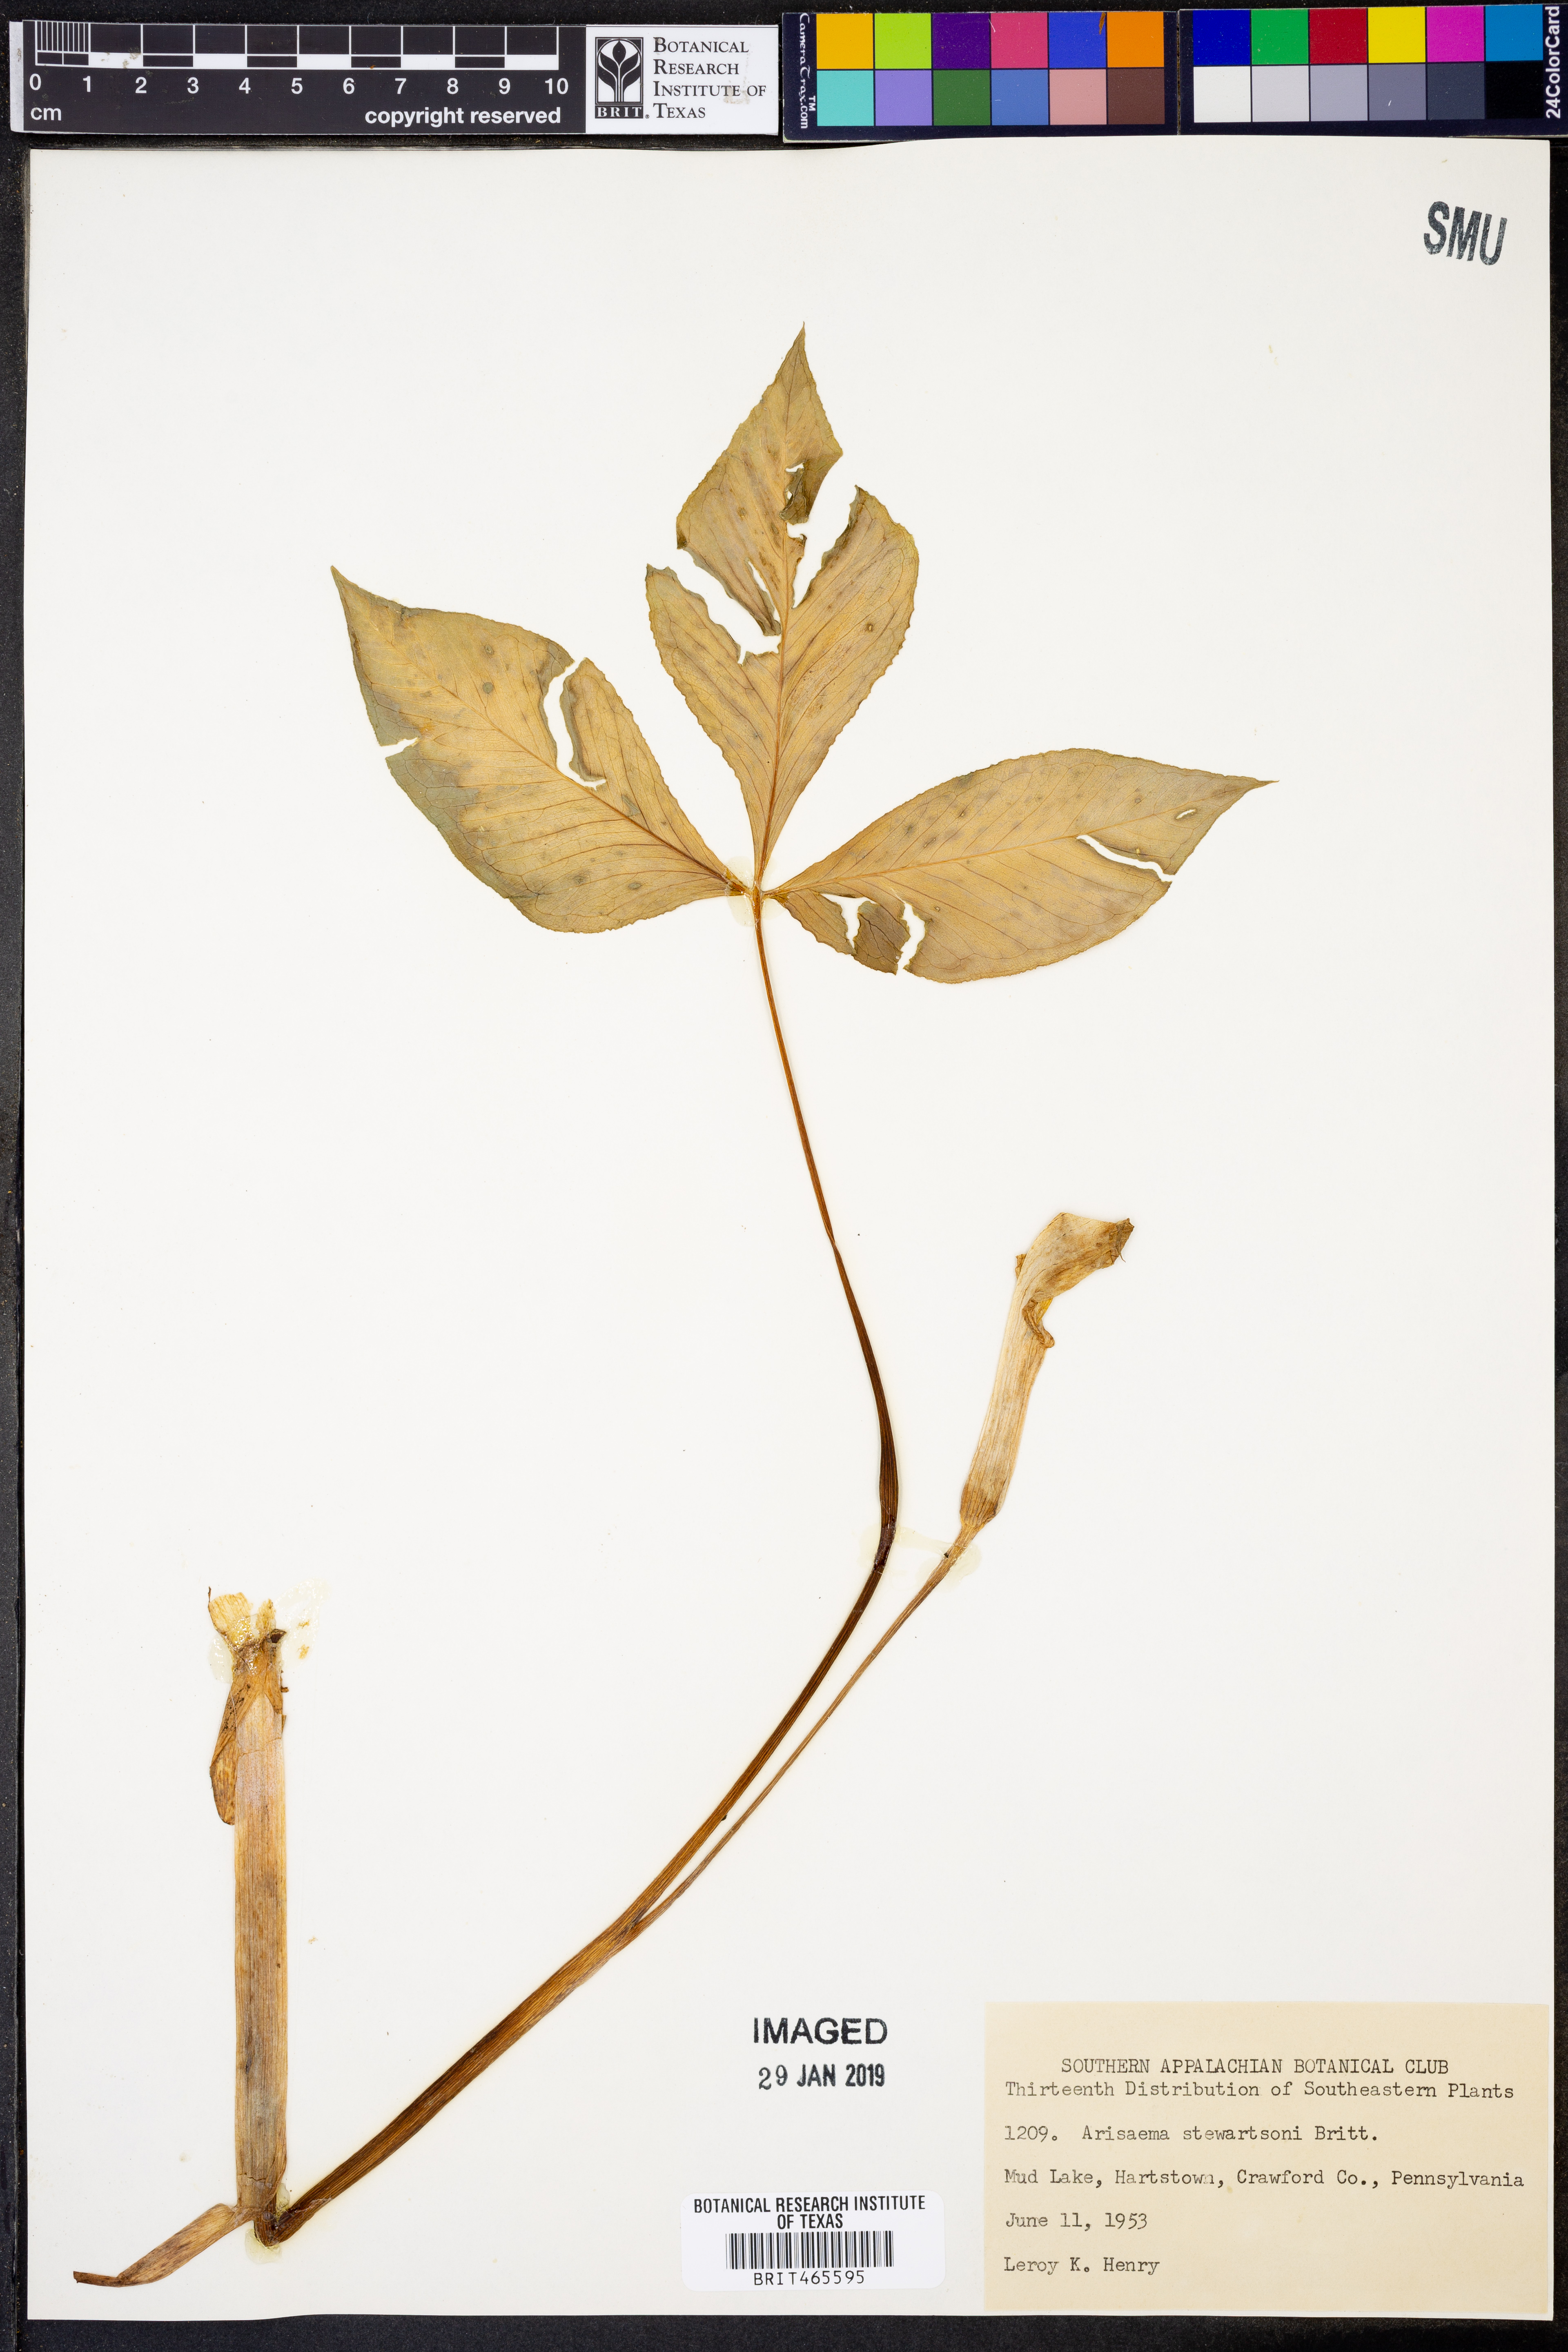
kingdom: Plantae
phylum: Tracheophyta
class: Liliopsida
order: Alismatales
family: Araceae
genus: Arisaema
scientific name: Arisaema stewardsonii
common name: Swamp jack-in-the-pulpit
